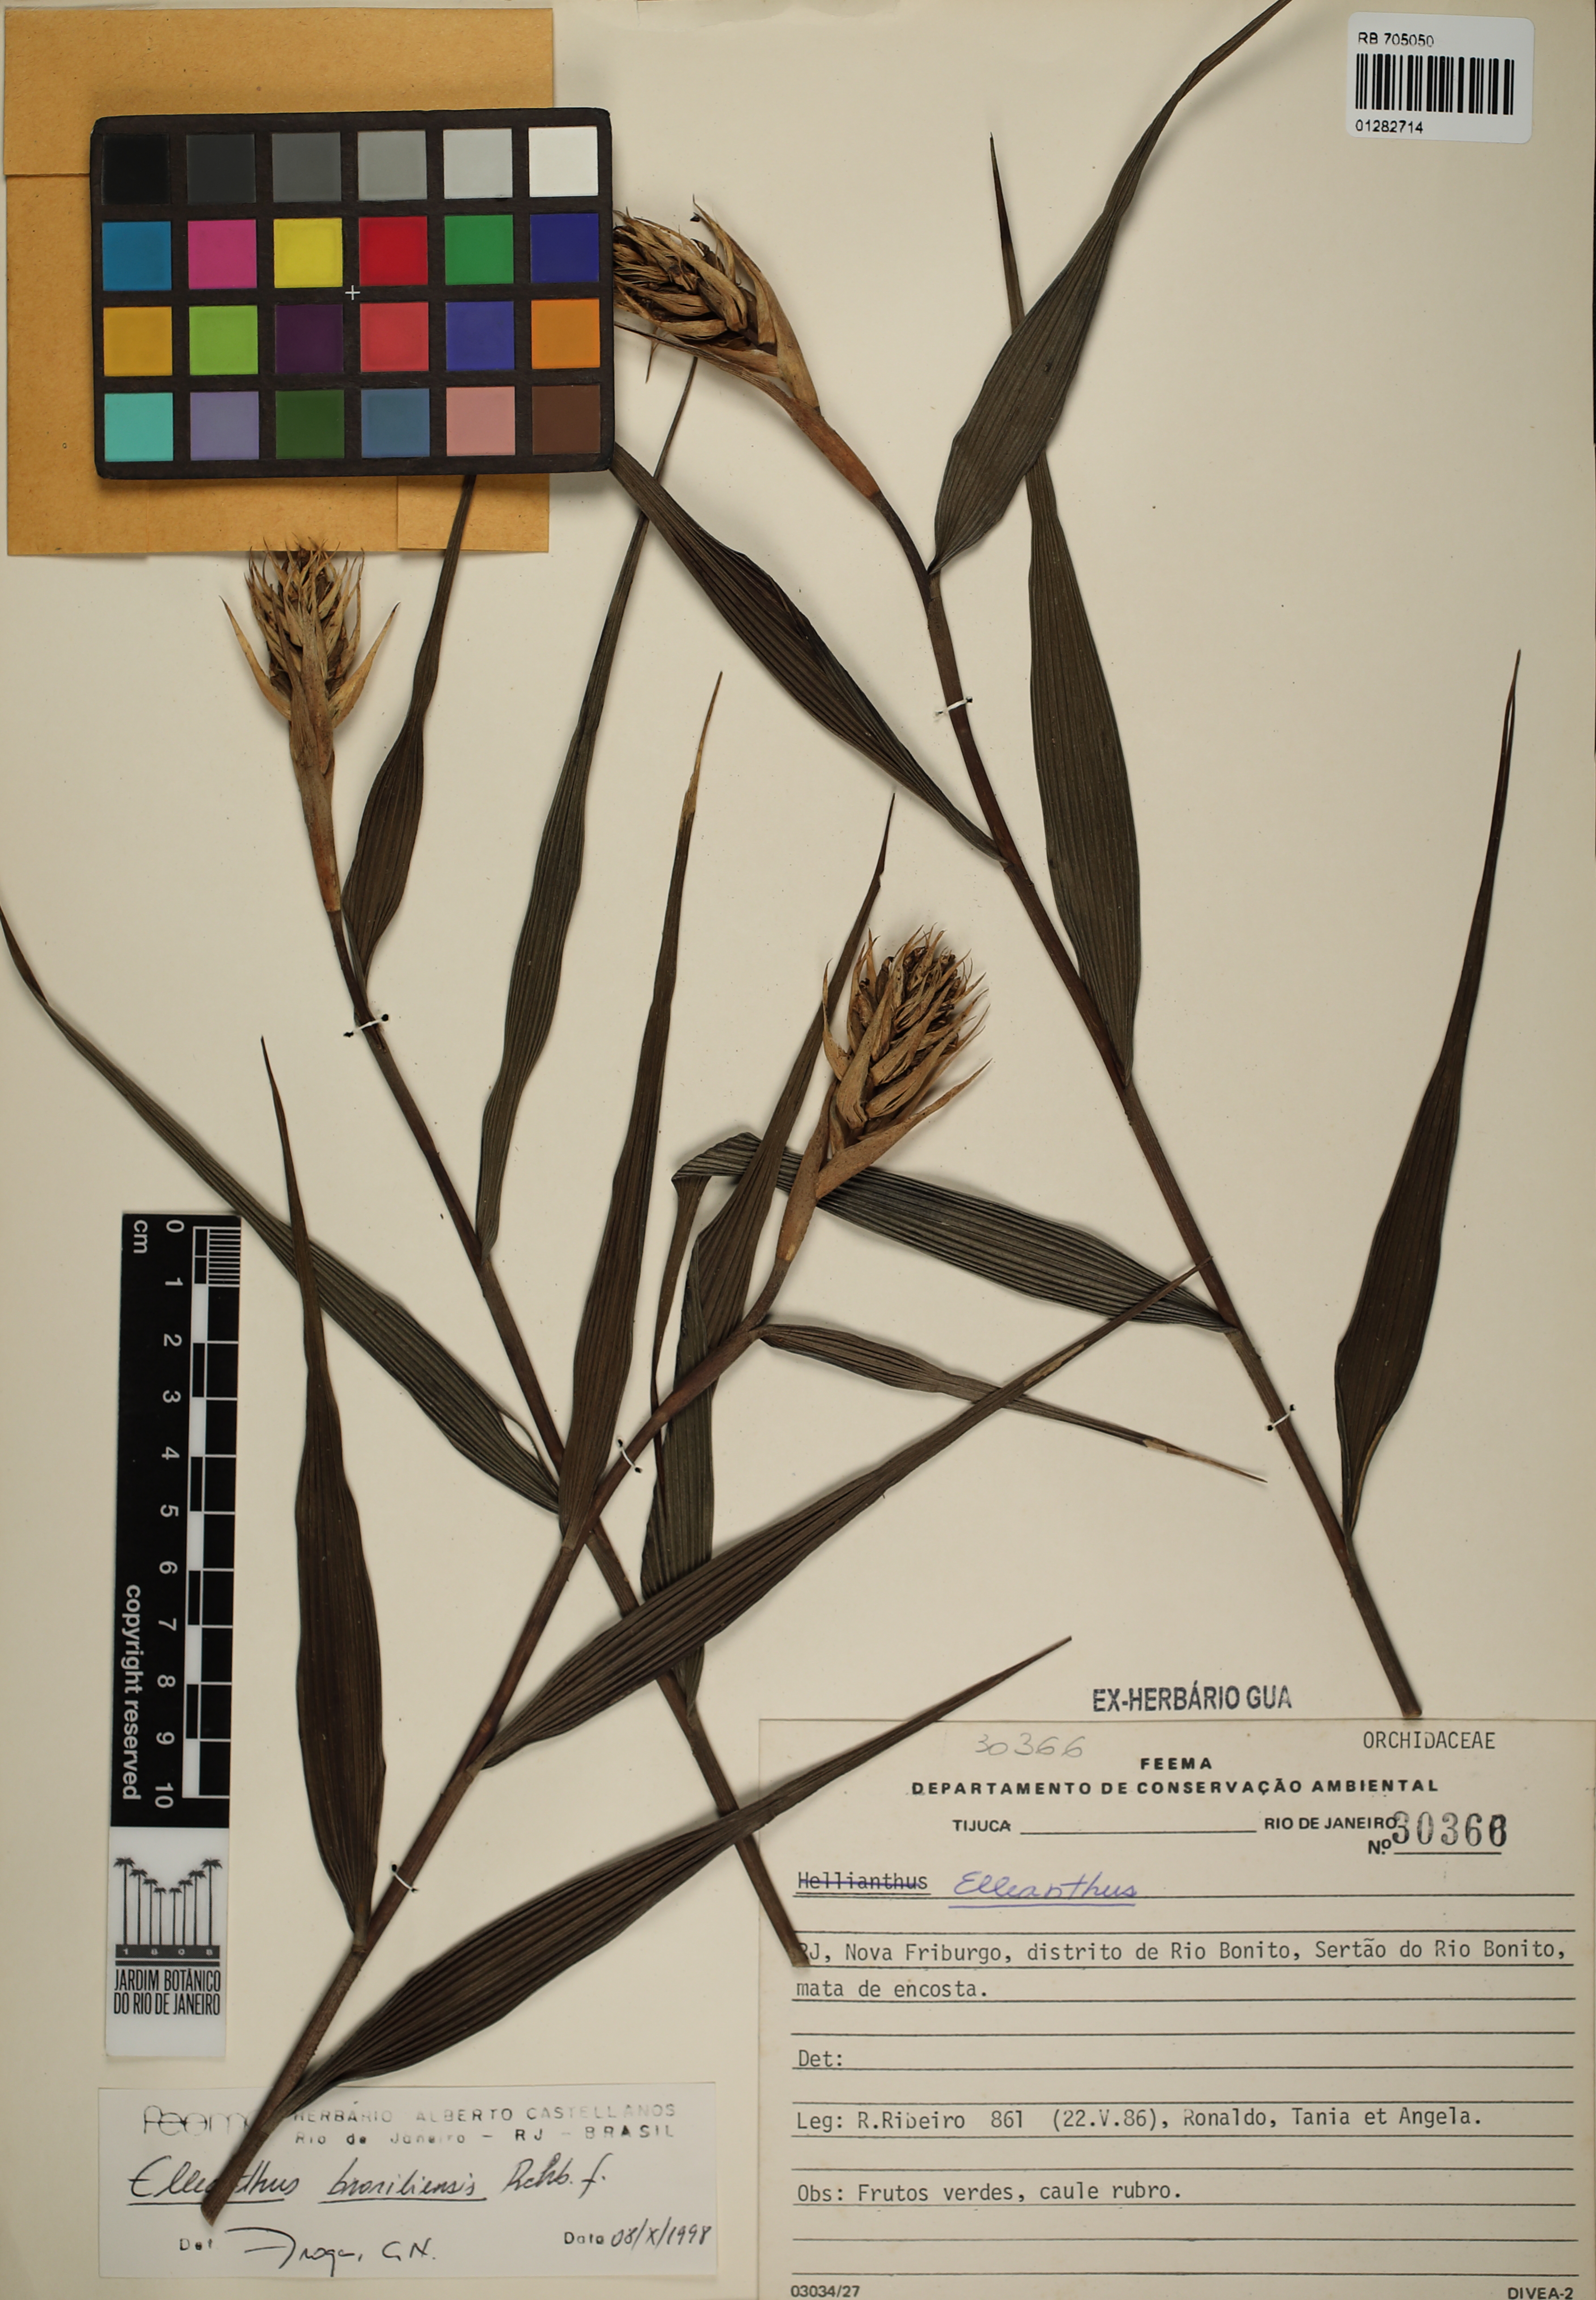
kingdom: Plantae
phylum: Tracheophyta
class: Liliopsida
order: Asparagales
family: Orchidaceae
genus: Elleanthus
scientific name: Elleanthus brasiliensis
